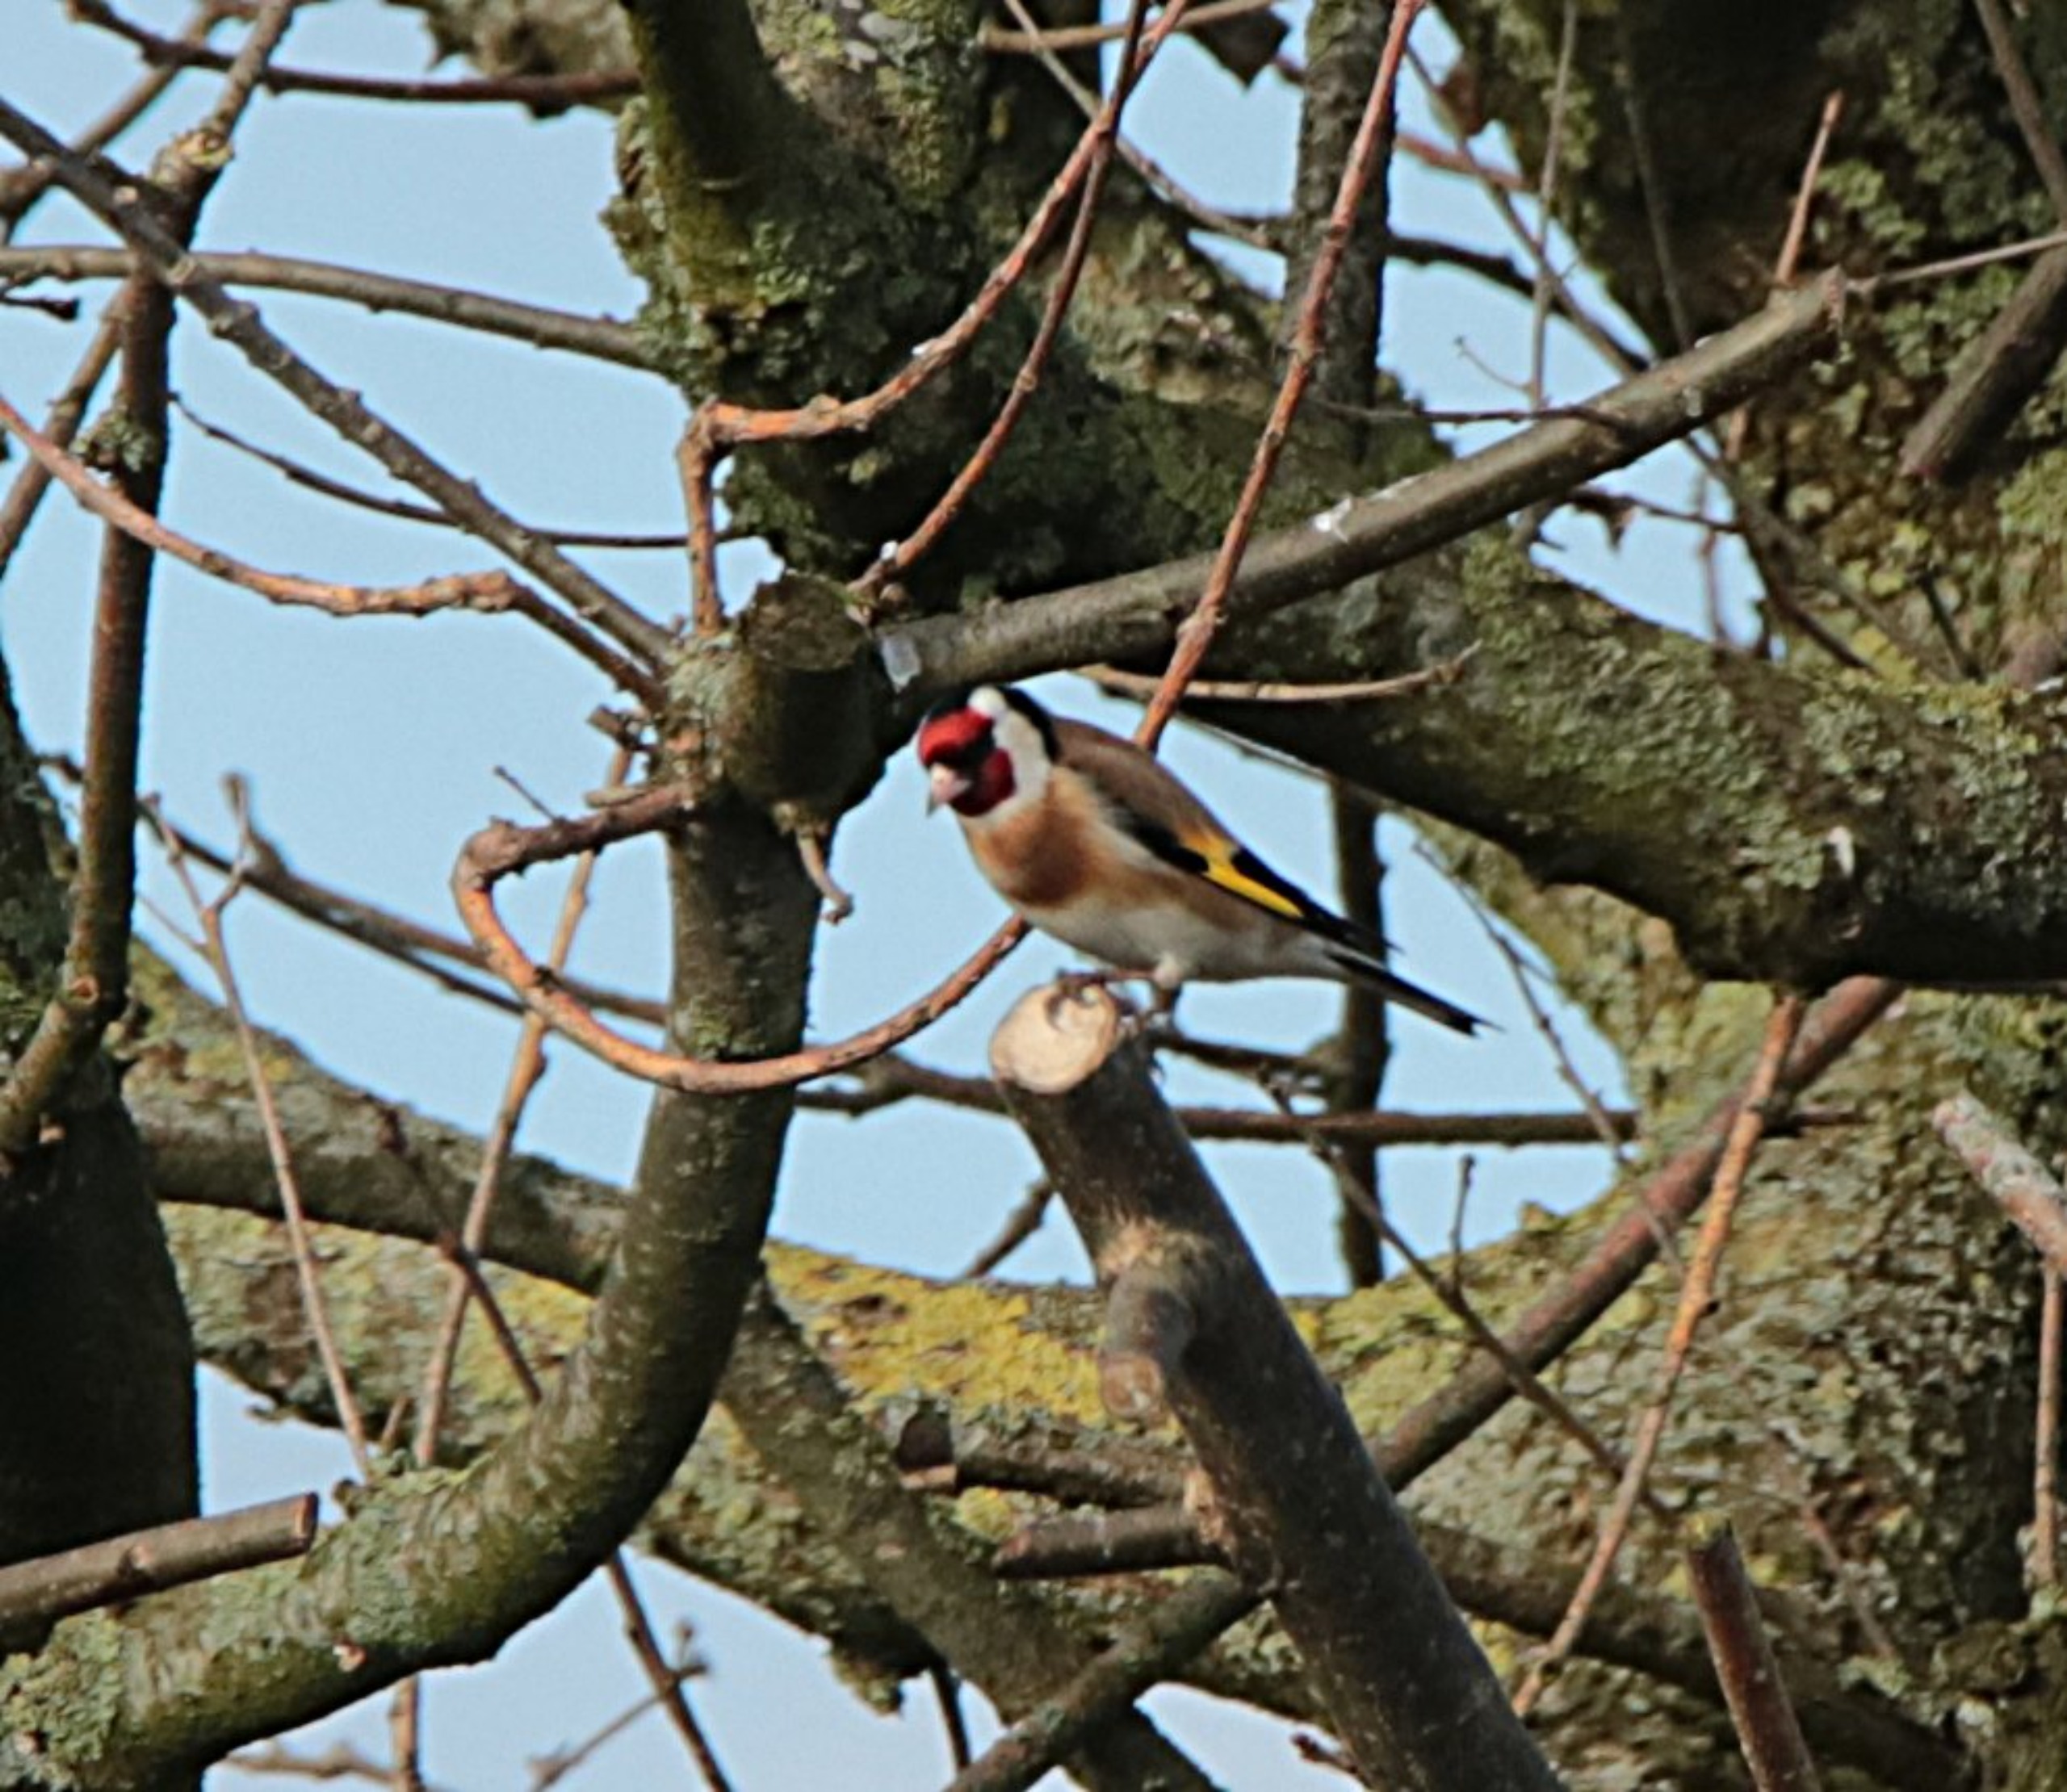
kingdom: Animalia
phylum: Chordata
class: Aves
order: Passeriformes
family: Fringillidae
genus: Carduelis
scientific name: Carduelis carduelis
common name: Stillits
